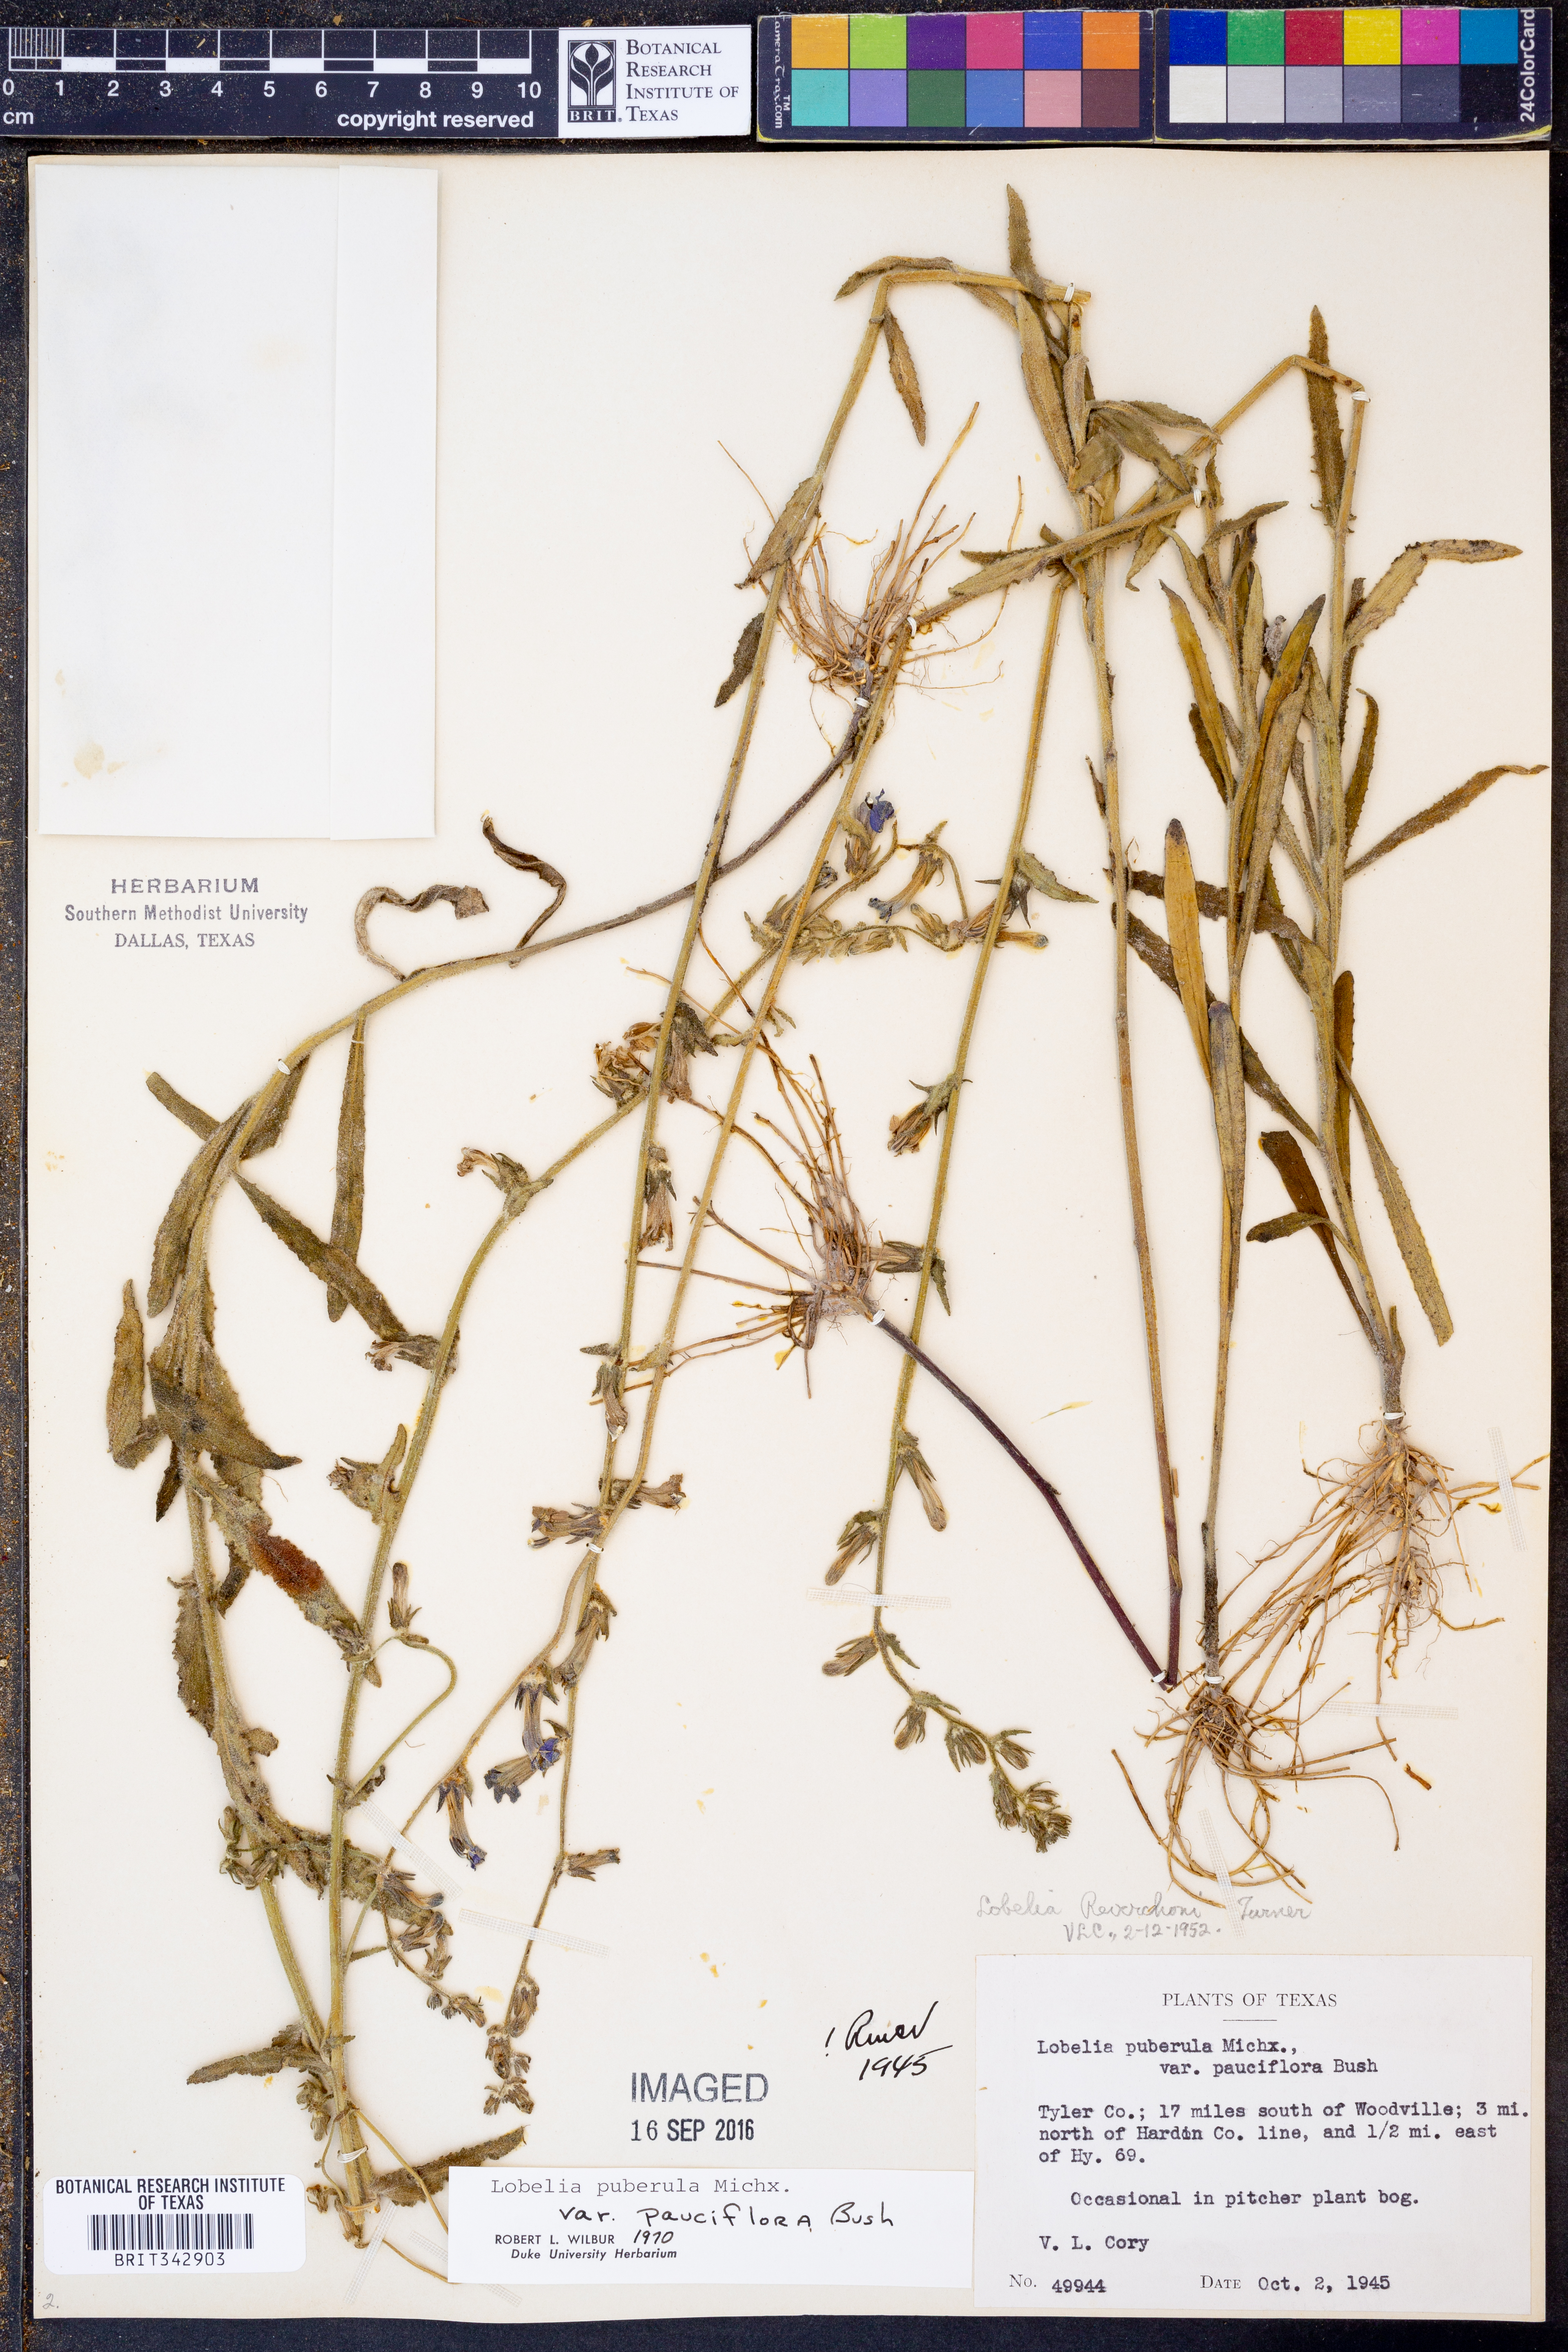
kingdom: Plantae
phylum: Tracheophyta
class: Magnoliopsida
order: Asterales
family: Campanulaceae
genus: Lobelia
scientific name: Lobelia puberula
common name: Purple dewdrop
